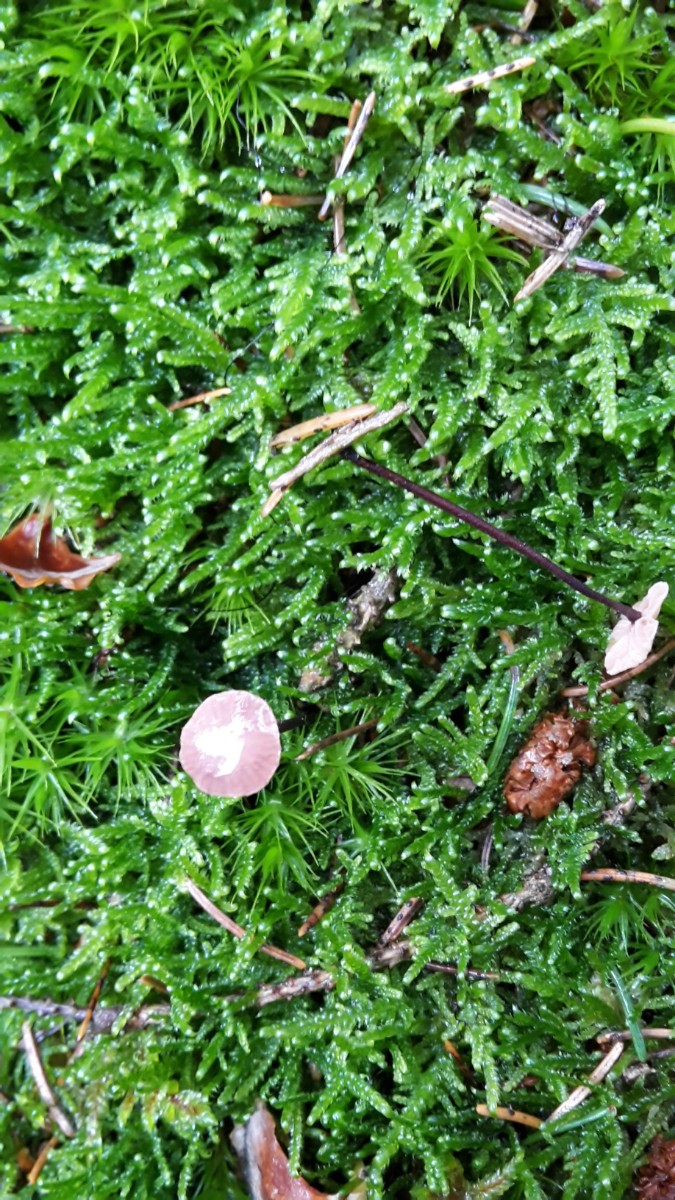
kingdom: Fungi
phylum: Basidiomycota
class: Agaricomycetes
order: Agaricales
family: Omphalotaceae
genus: Paragymnopus
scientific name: Paragymnopus perforans
